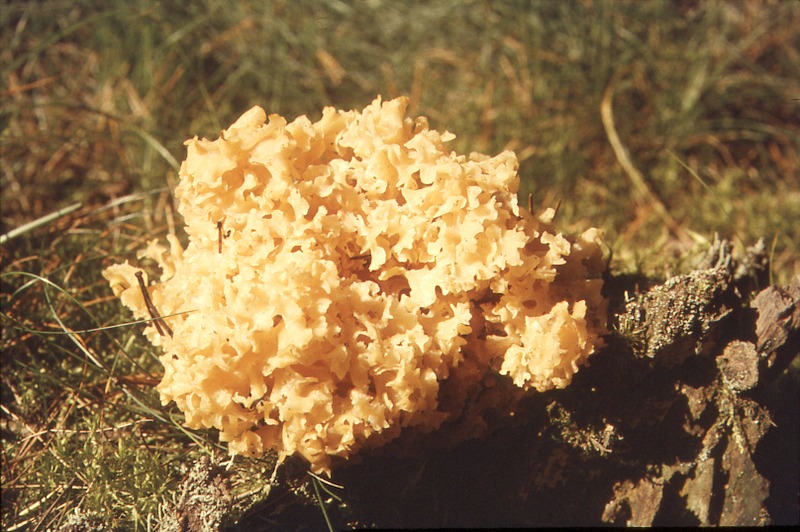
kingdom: Fungi
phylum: Basidiomycota
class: Agaricomycetes
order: Polyporales
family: Sparassidaceae
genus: Sparassis
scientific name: Sparassis crispa
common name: Brain fungus
